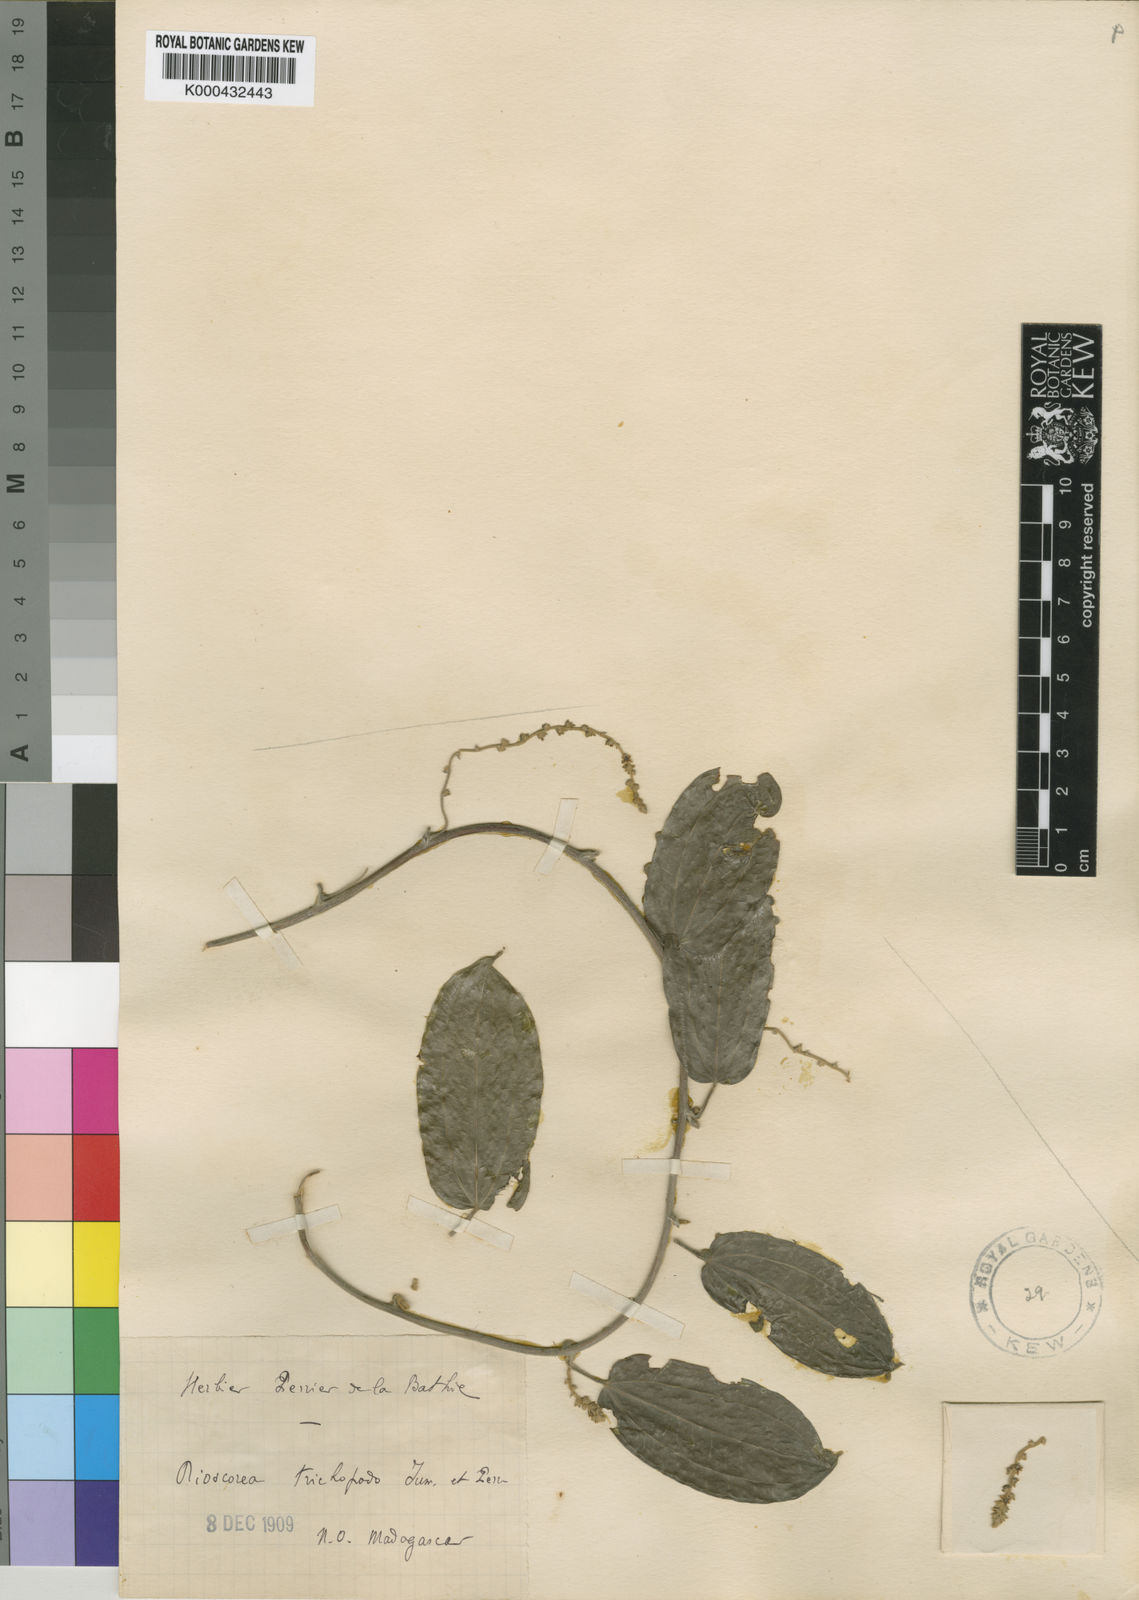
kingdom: Plantae
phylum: Tracheophyta
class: Liliopsida
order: Dioscoreales
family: Dioscoreaceae
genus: Dioscorea
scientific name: Dioscorea soso
